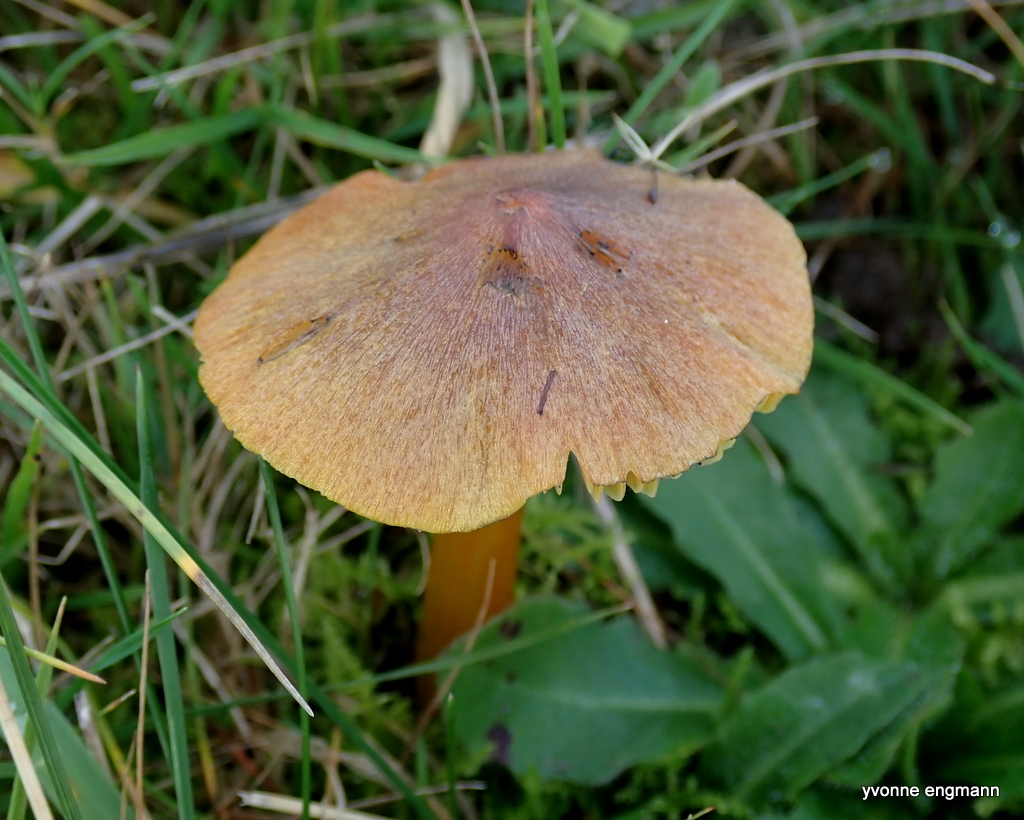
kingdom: Fungi
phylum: Basidiomycota
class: Agaricomycetes
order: Agaricales
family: Hygrophoraceae
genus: Hygrocybe
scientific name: Hygrocybe conica
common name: kegle-vokshat
